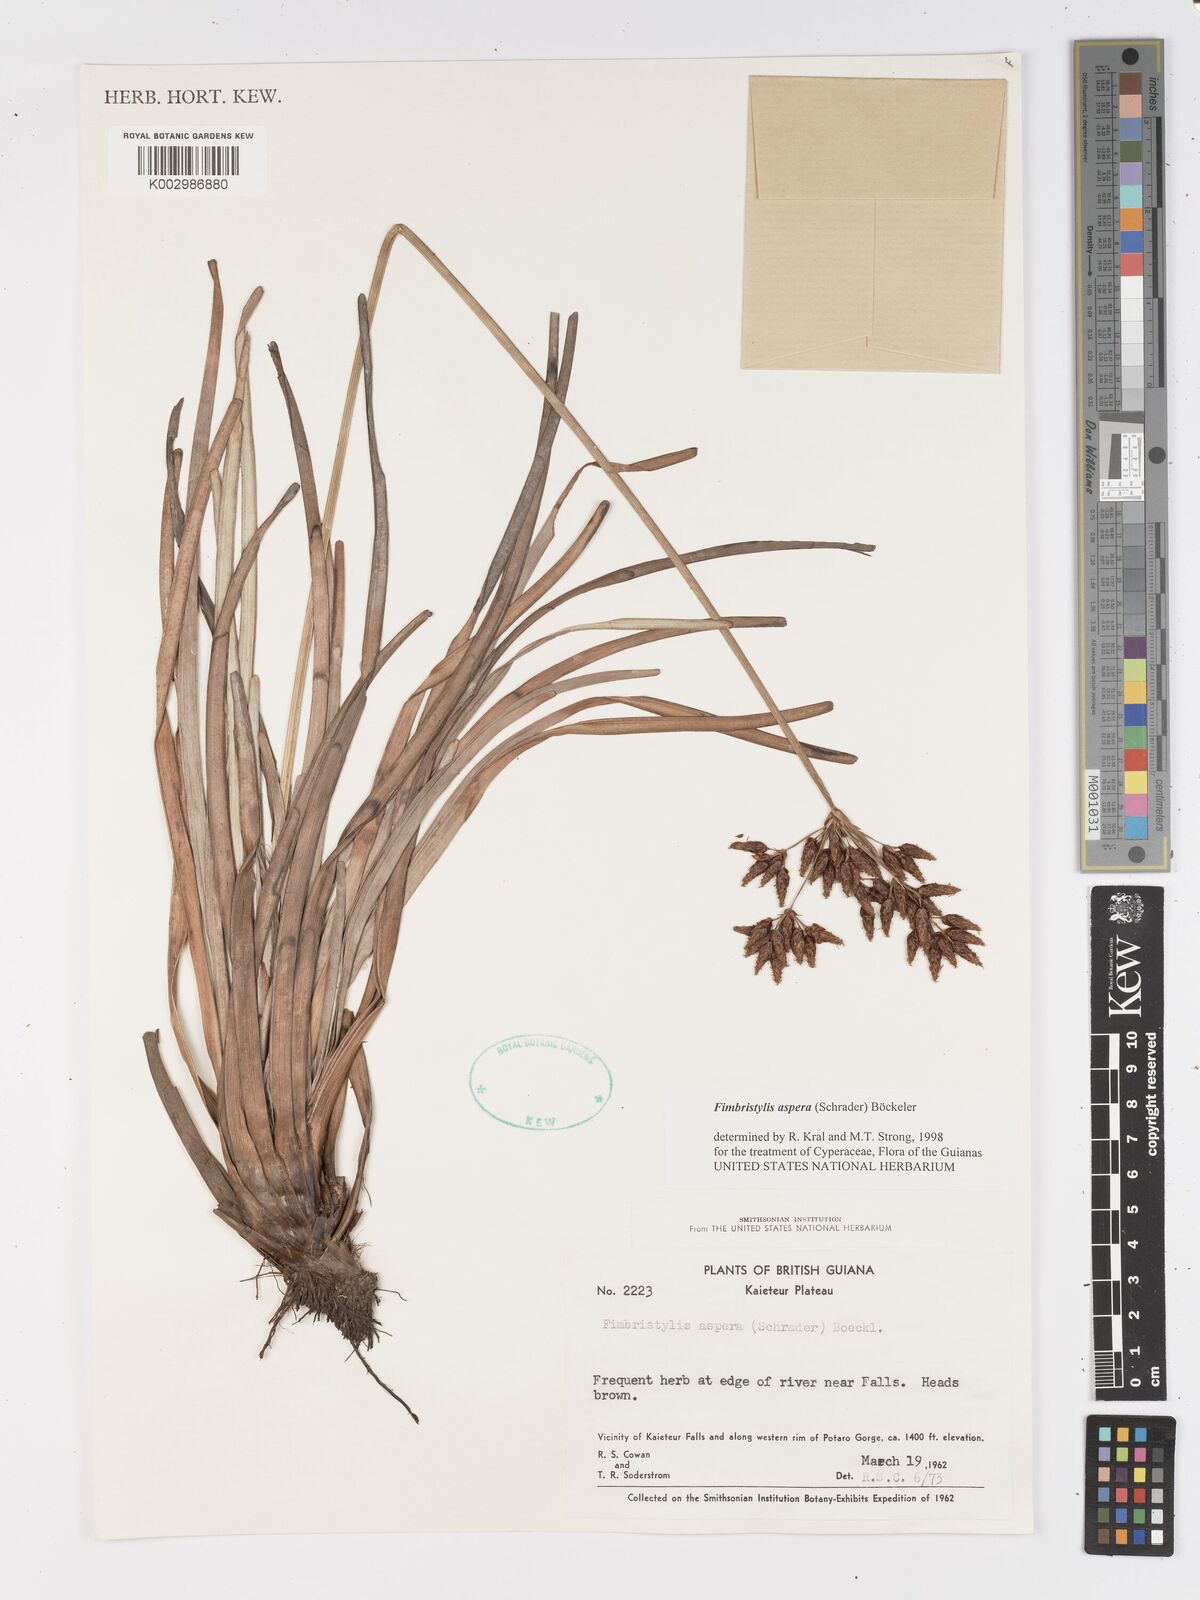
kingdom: Plantae
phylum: Tracheophyta
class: Liliopsida
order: Poales
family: Cyperaceae
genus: Fimbristylis
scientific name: Fimbristylis aspera
